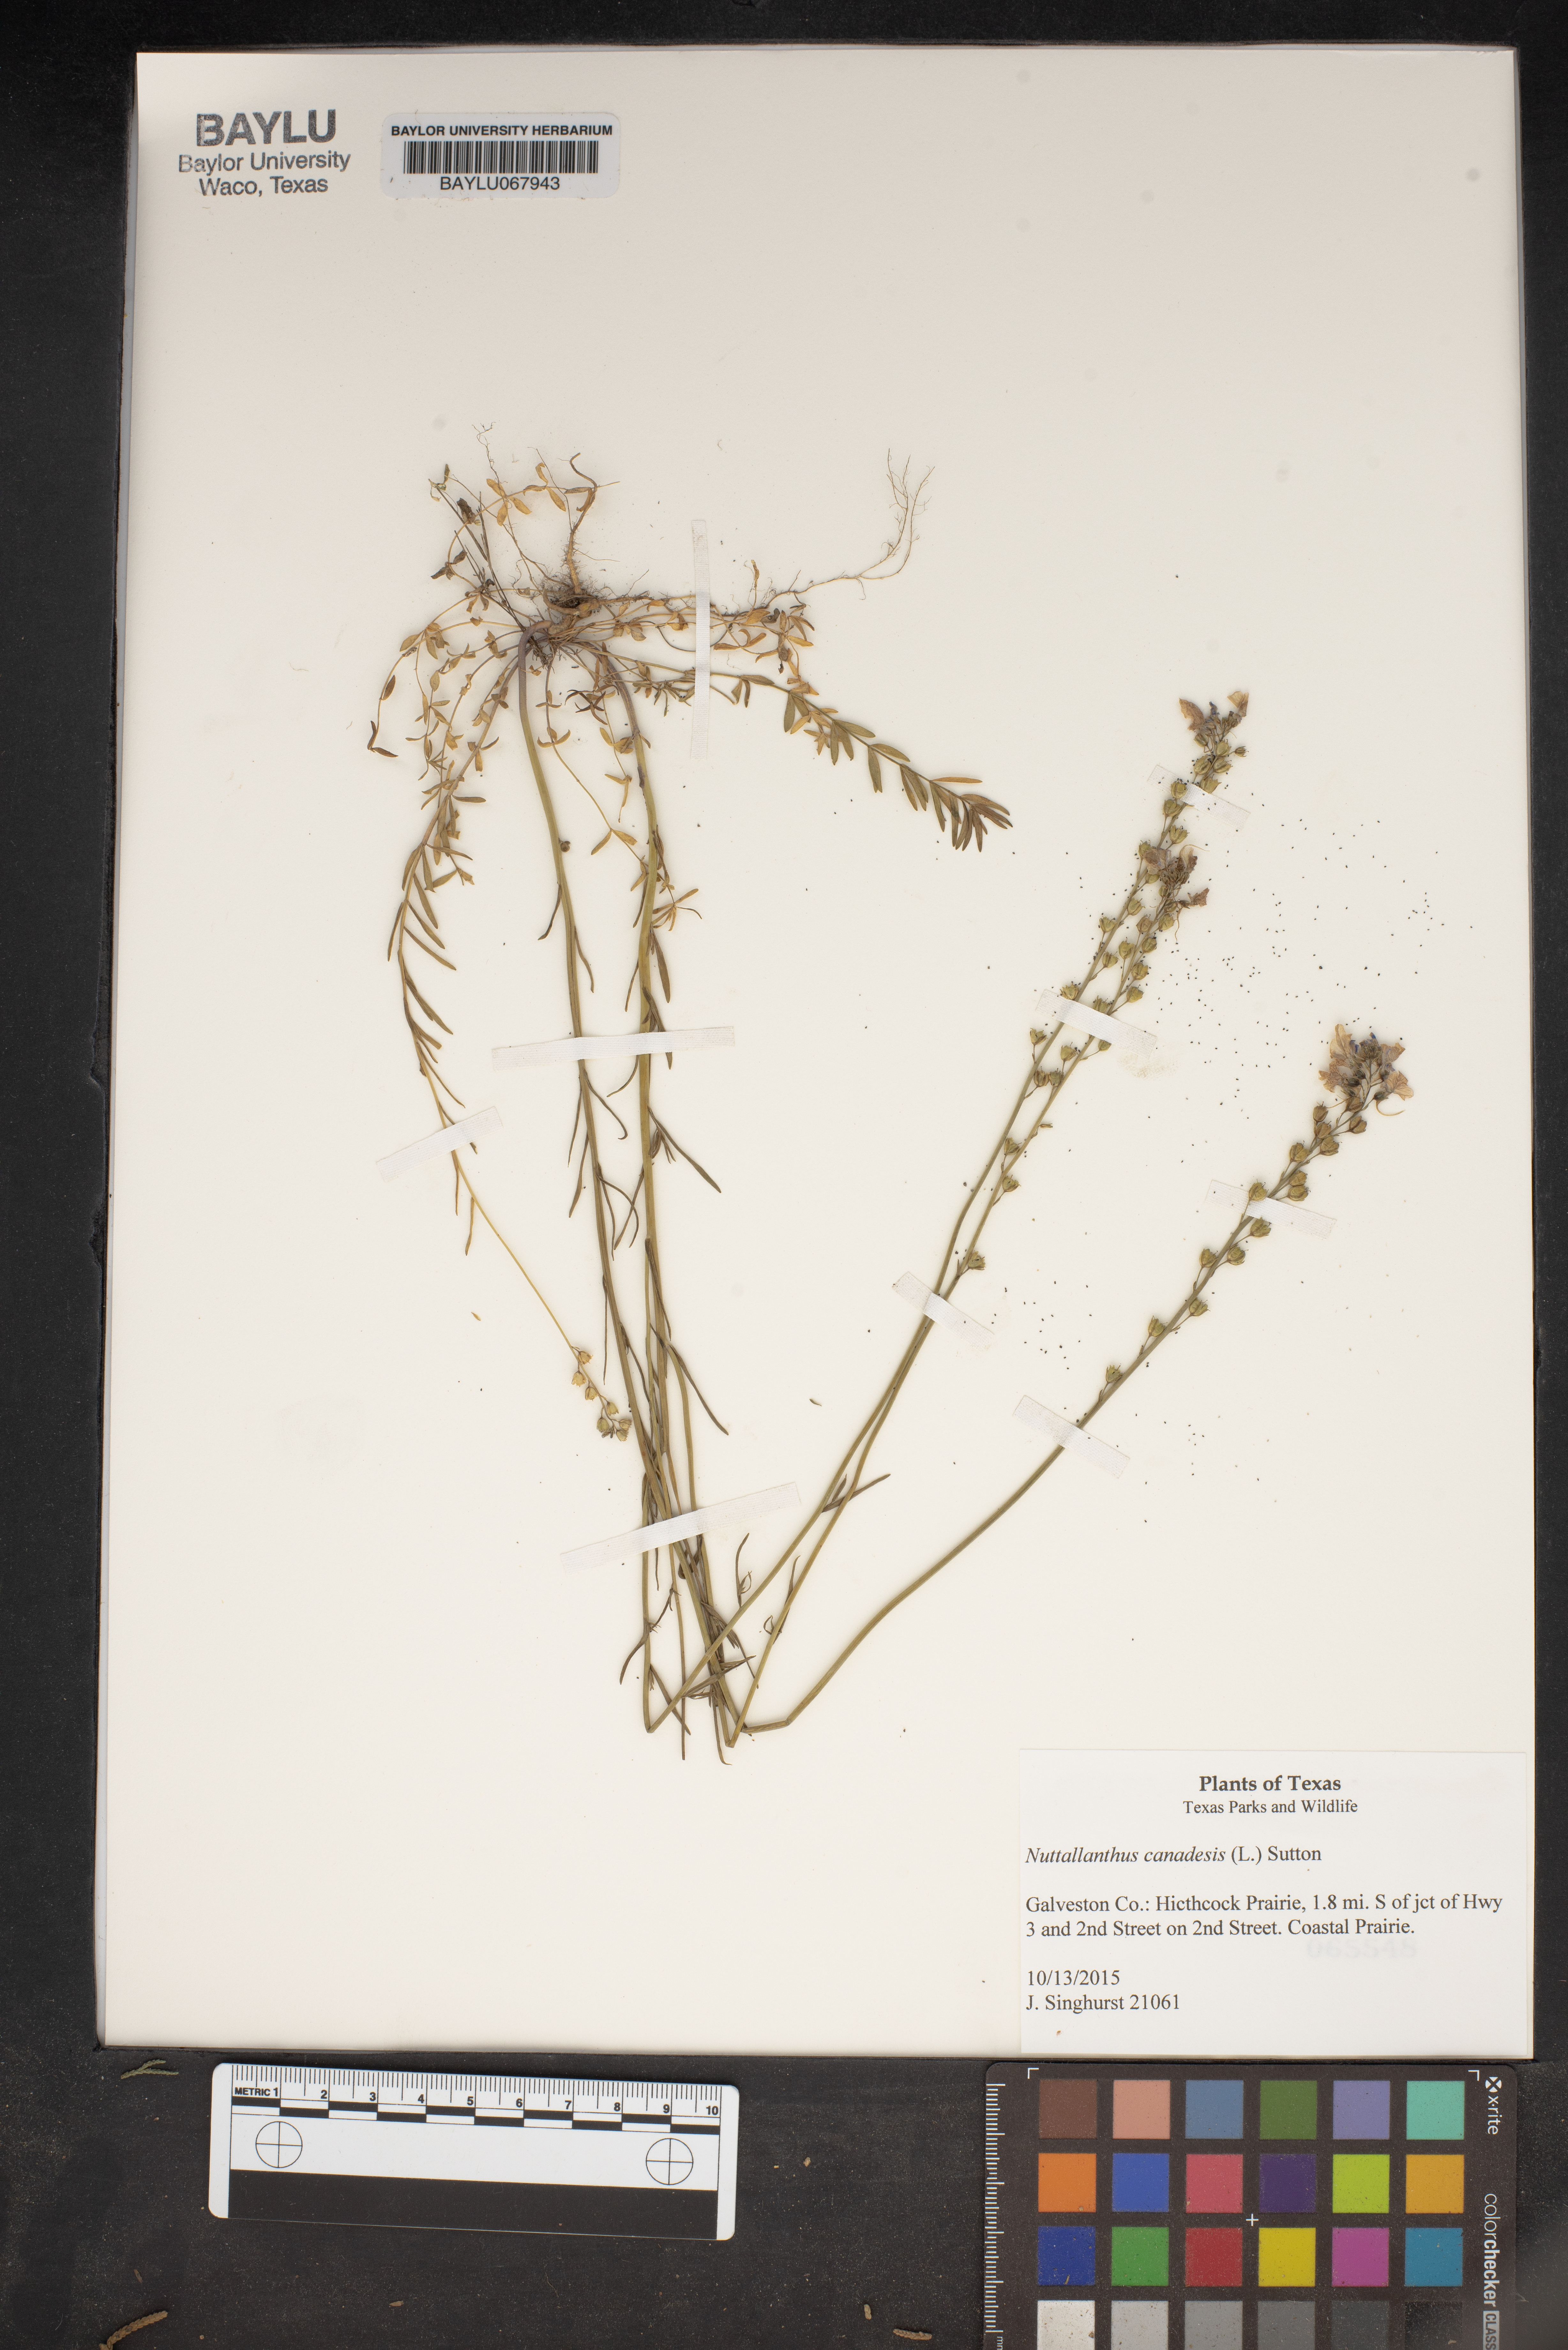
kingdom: Plantae
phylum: Tracheophyta
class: Magnoliopsida
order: Lamiales
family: Plantaginaceae
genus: Nuttallanthus
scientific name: Nuttallanthus canadensis
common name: Blue toadflax
